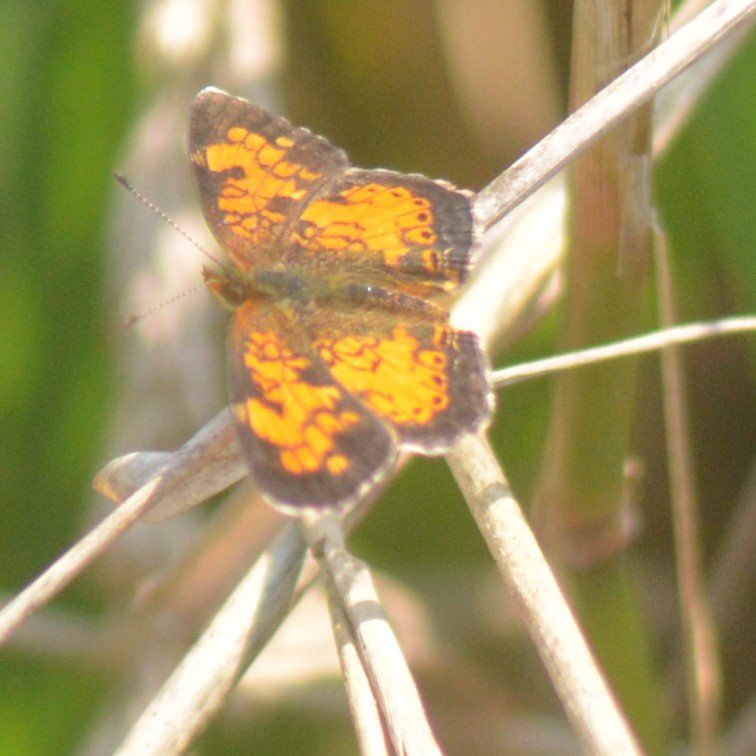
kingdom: Animalia
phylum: Arthropoda
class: Insecta
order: Lepidoptera
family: Nymphalidae
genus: Phyciodes
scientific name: Phyciodes tharos
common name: Northern Crescent
